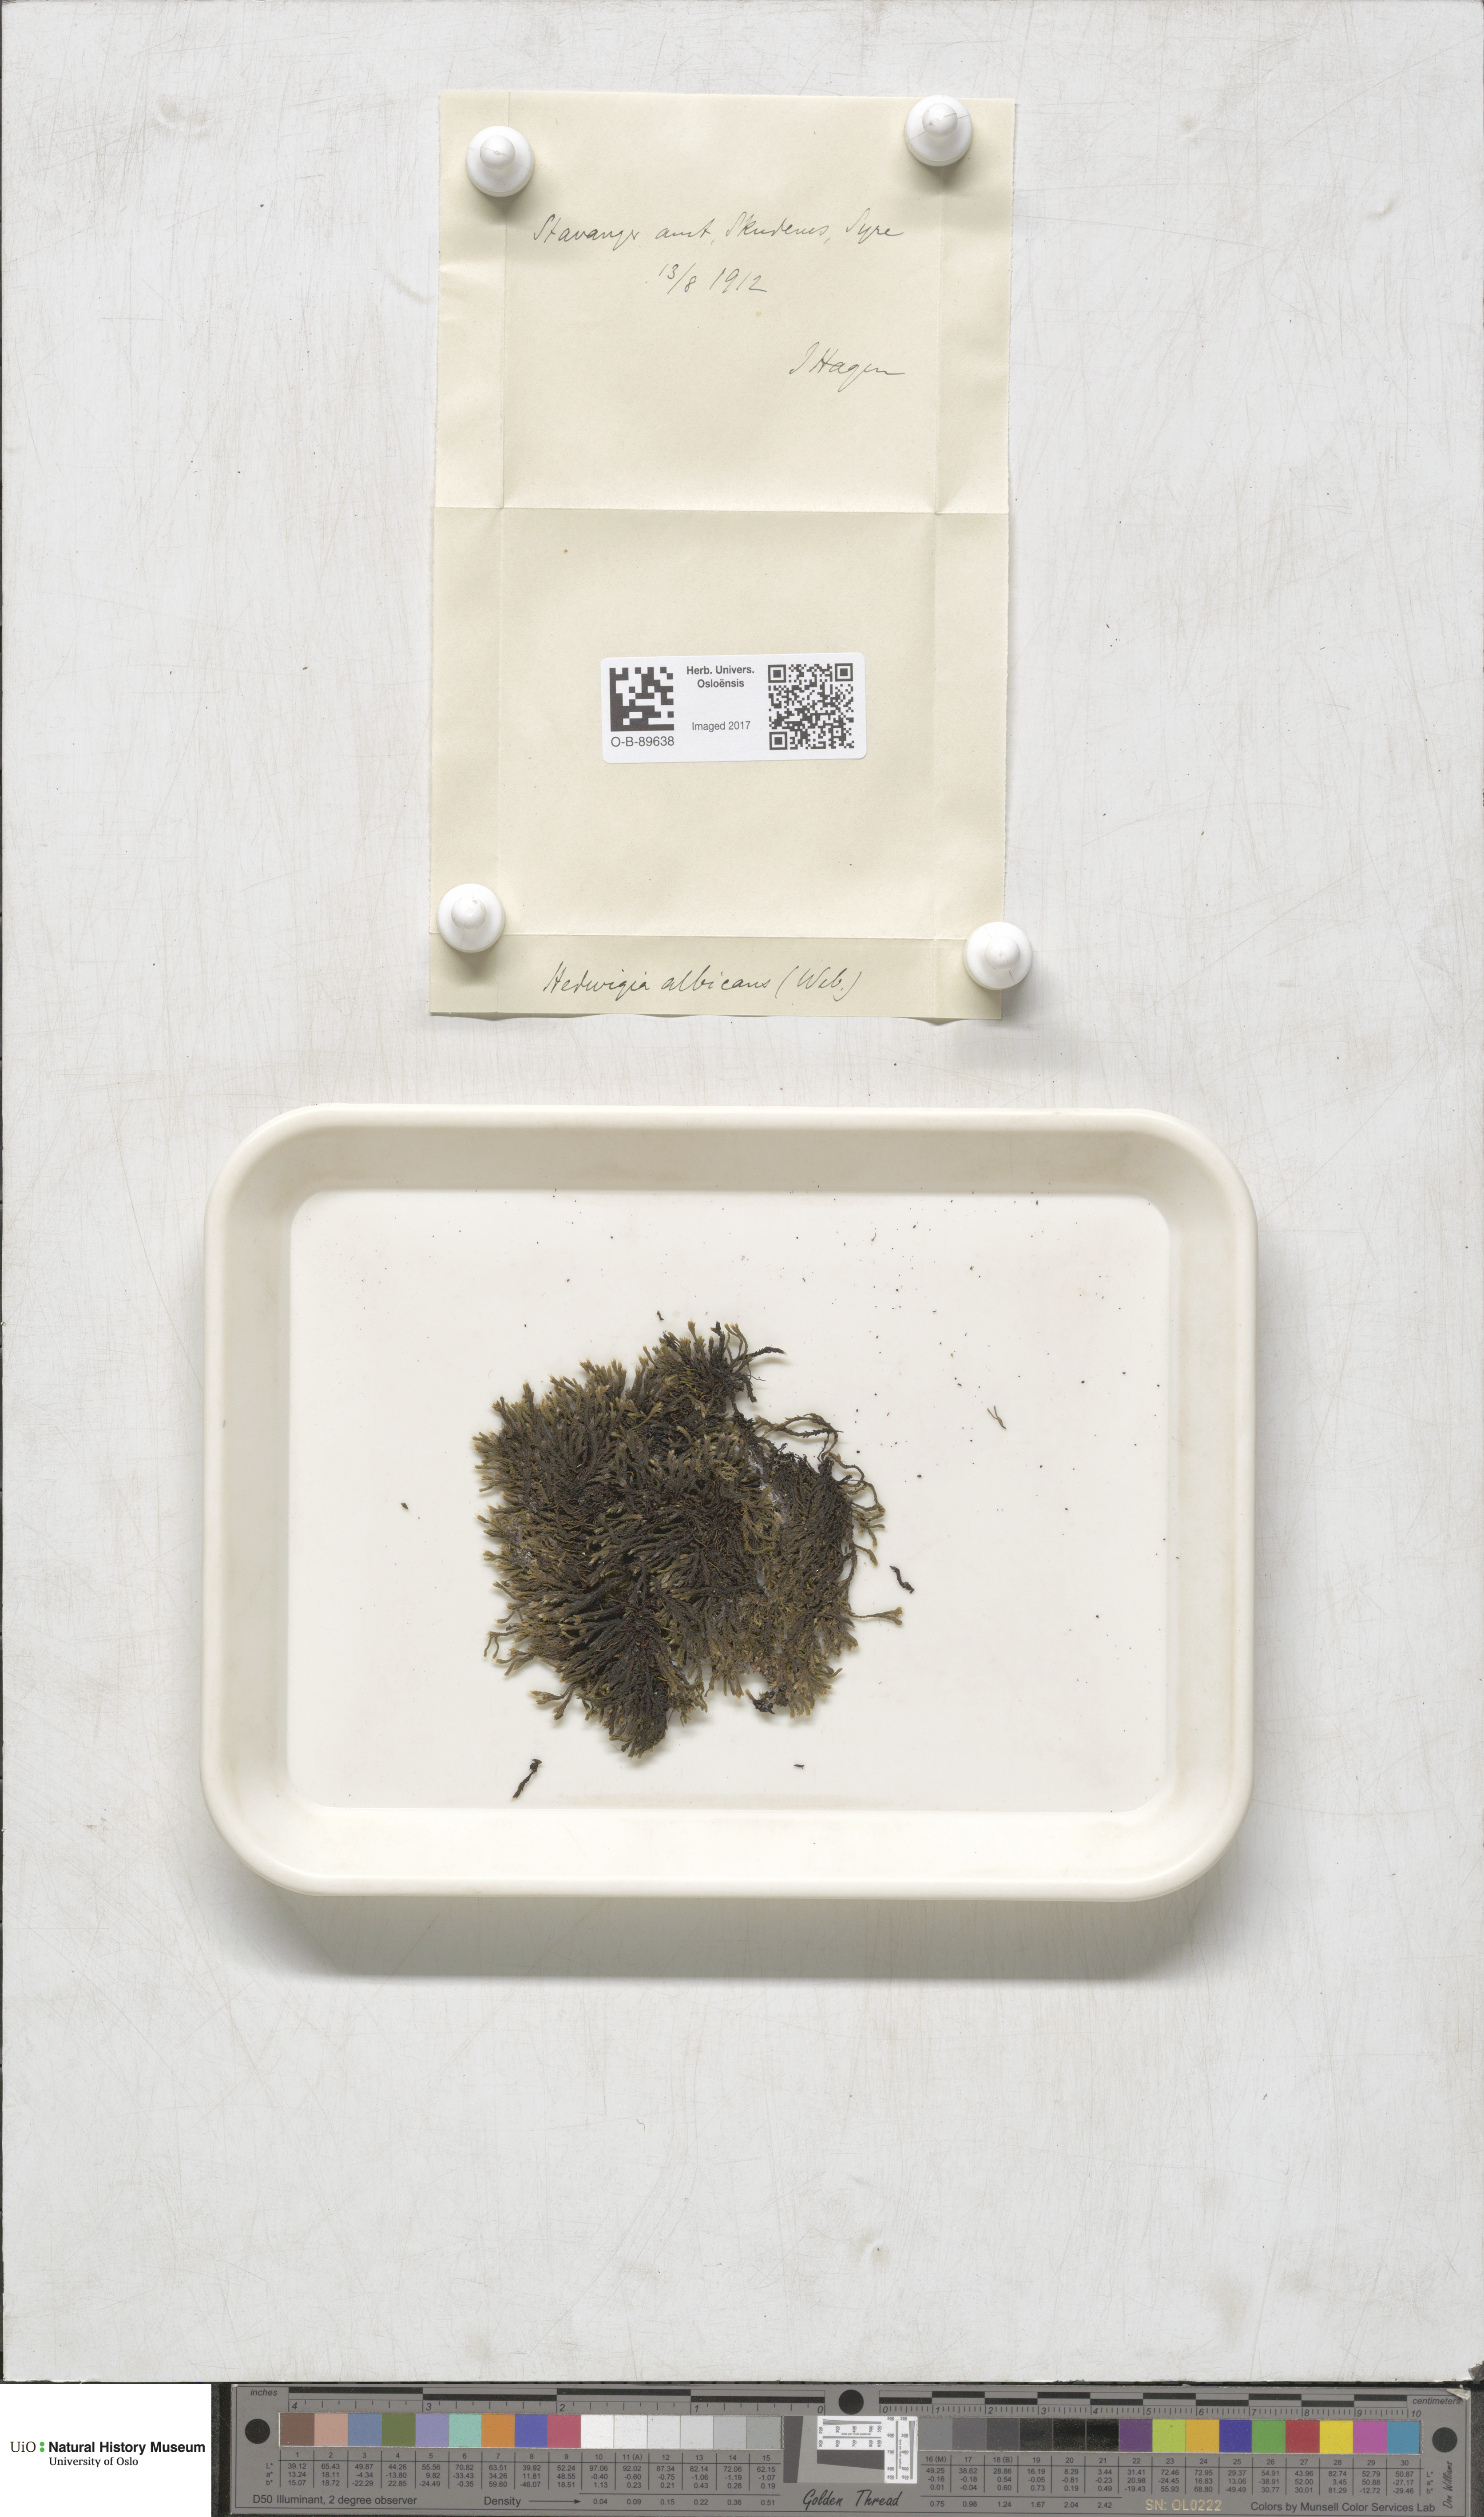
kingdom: Plantae
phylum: Bryophyta
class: Bryopsida
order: Hedwigiales
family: Hedwigiaceae
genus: Hedwigia
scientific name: Hedwigia ciliata
